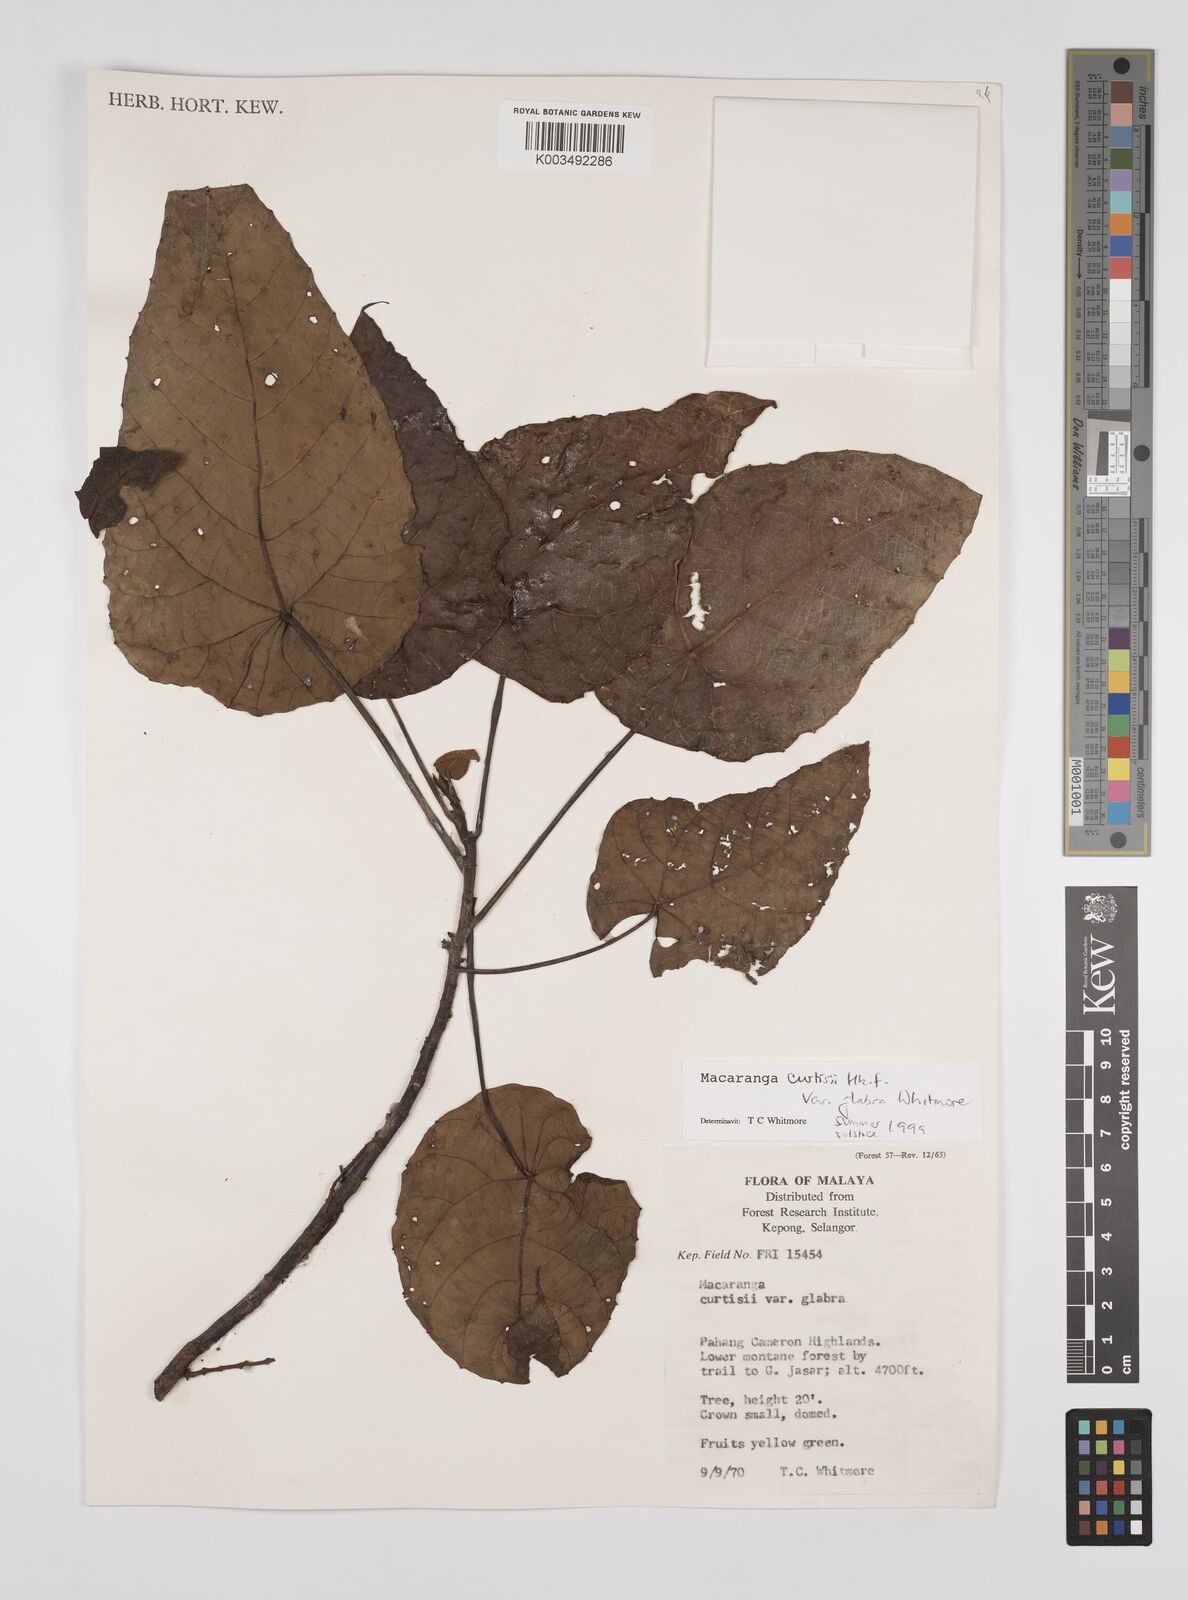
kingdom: Plantae
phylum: Tracheophyta
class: Magnoliopsida
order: Malpighiales
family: Euphorbiaceae
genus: Macaranga
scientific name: Macaranga pachyphylla
